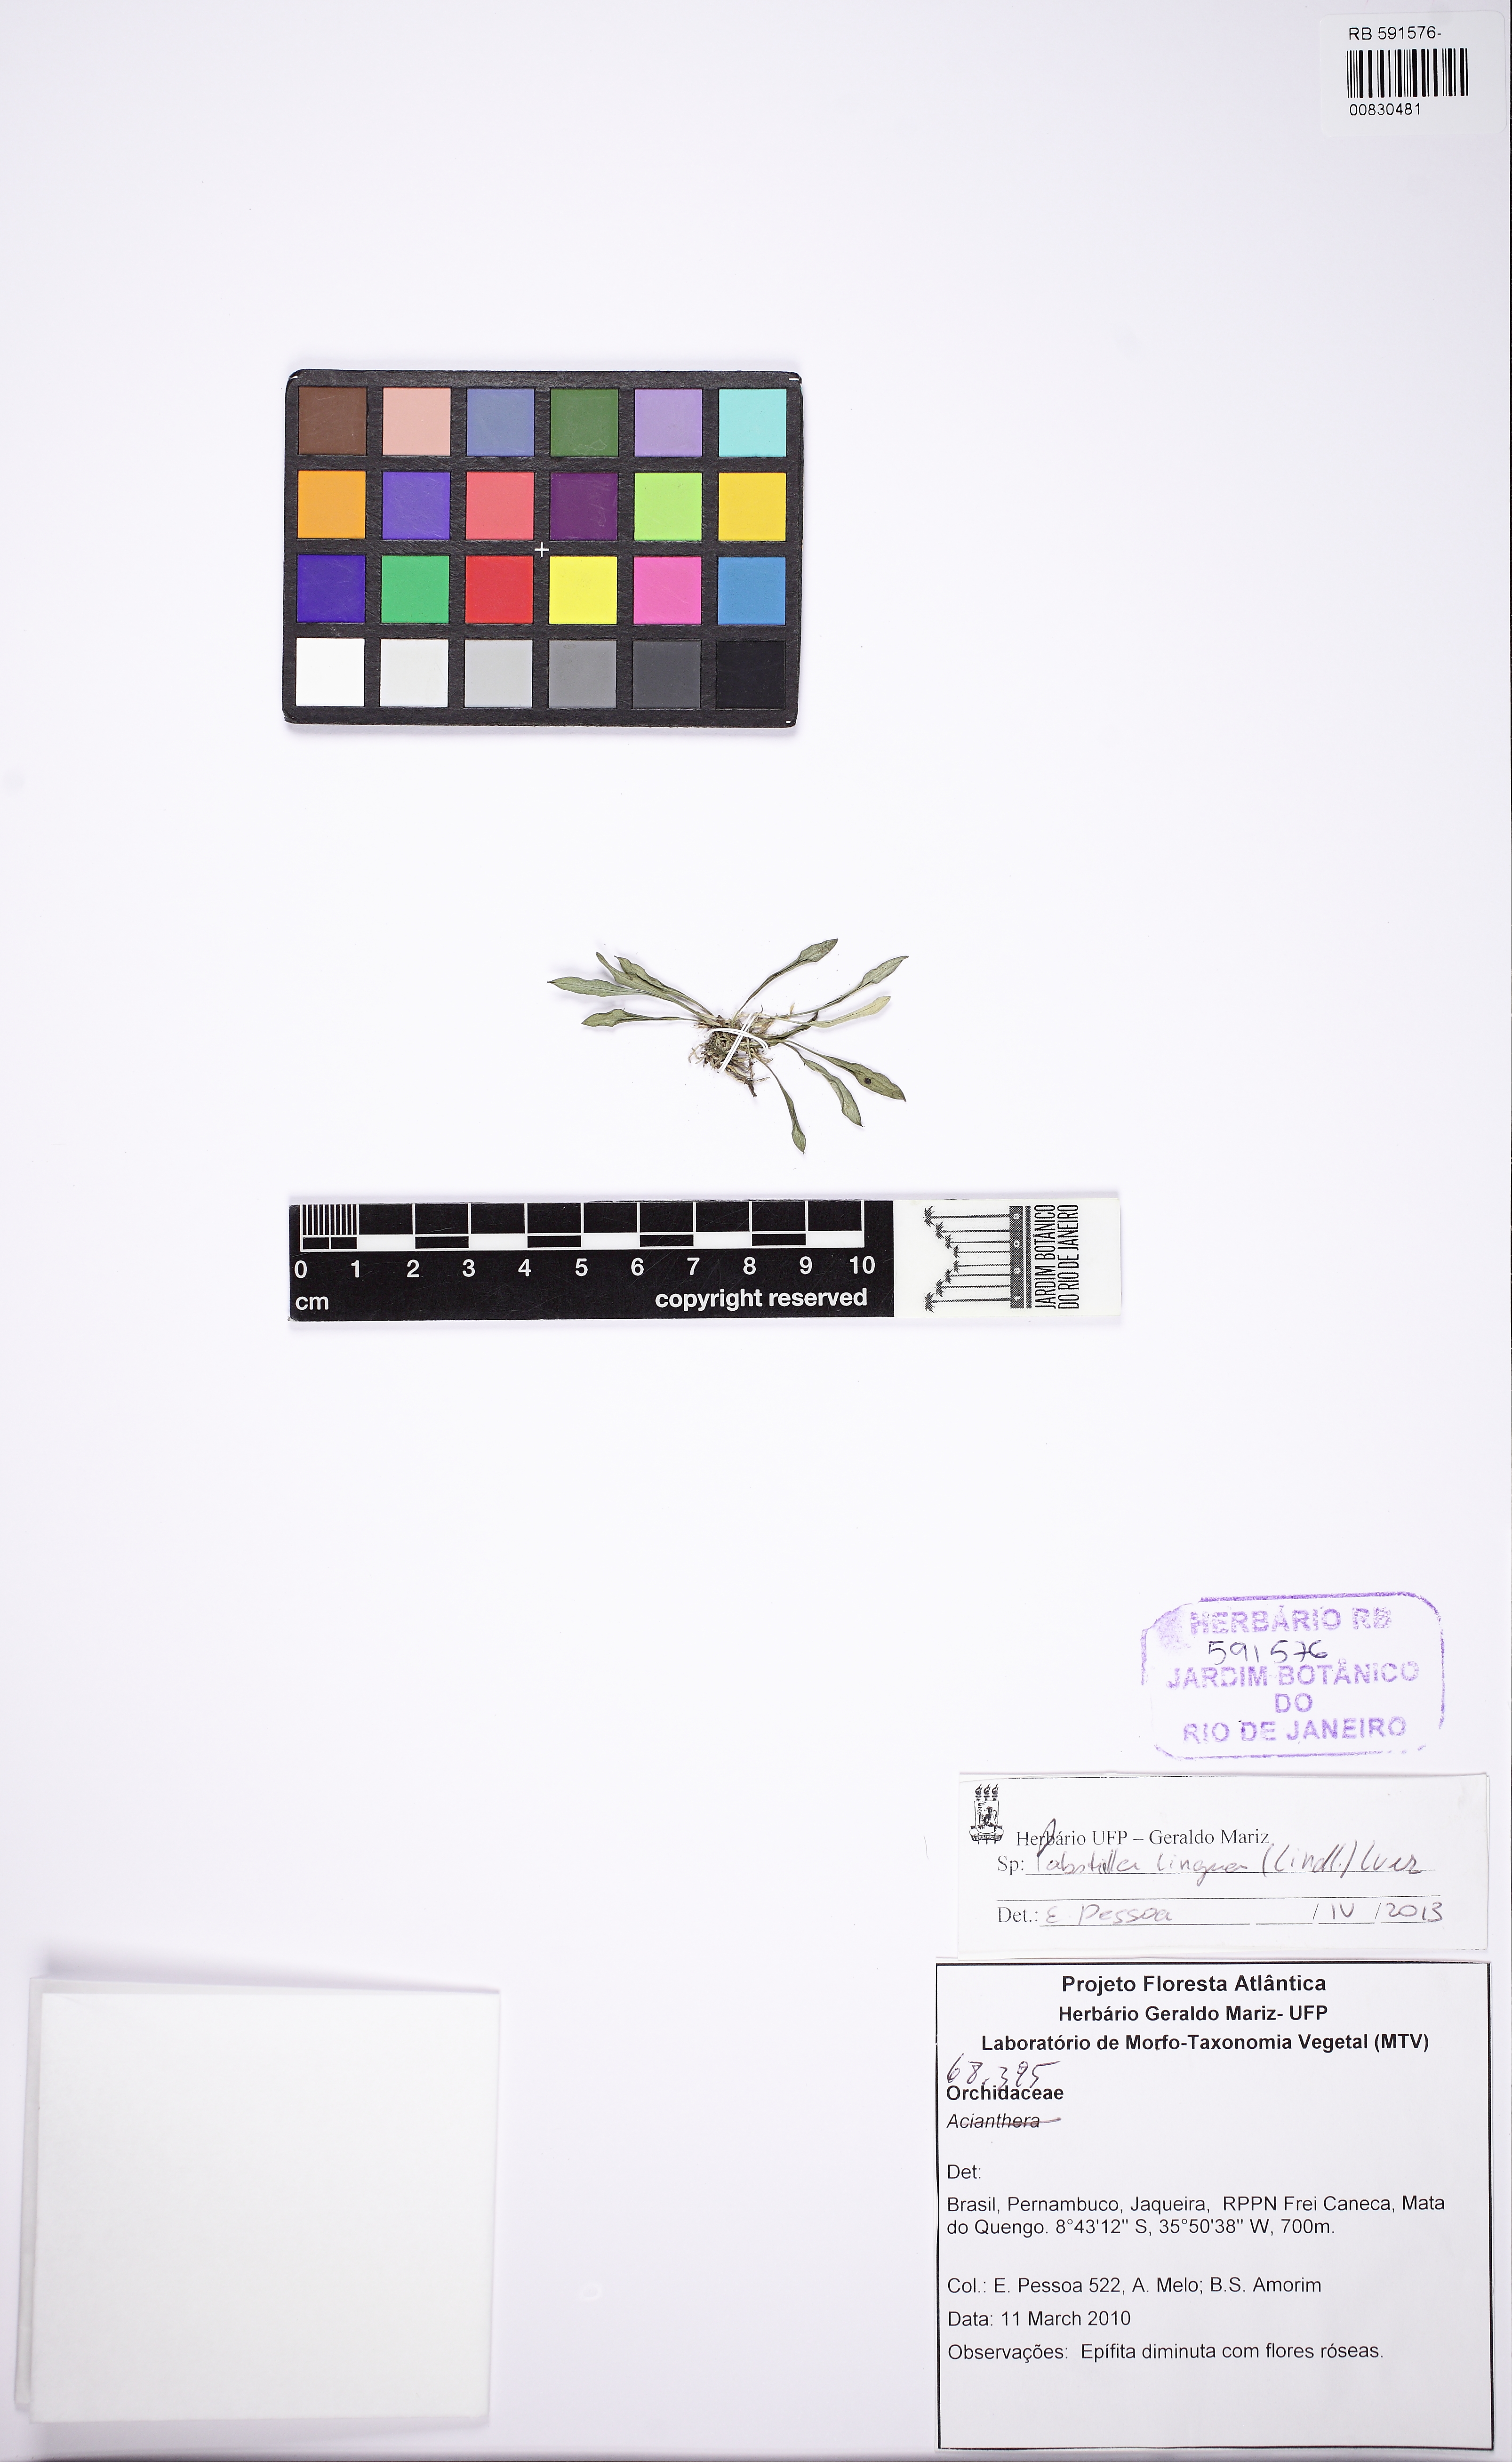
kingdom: Plantae
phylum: Tracheophyta
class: Liliopsida
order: Asparagales
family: Orchidaceae
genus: Pabstiella
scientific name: Pabstiella lingua
